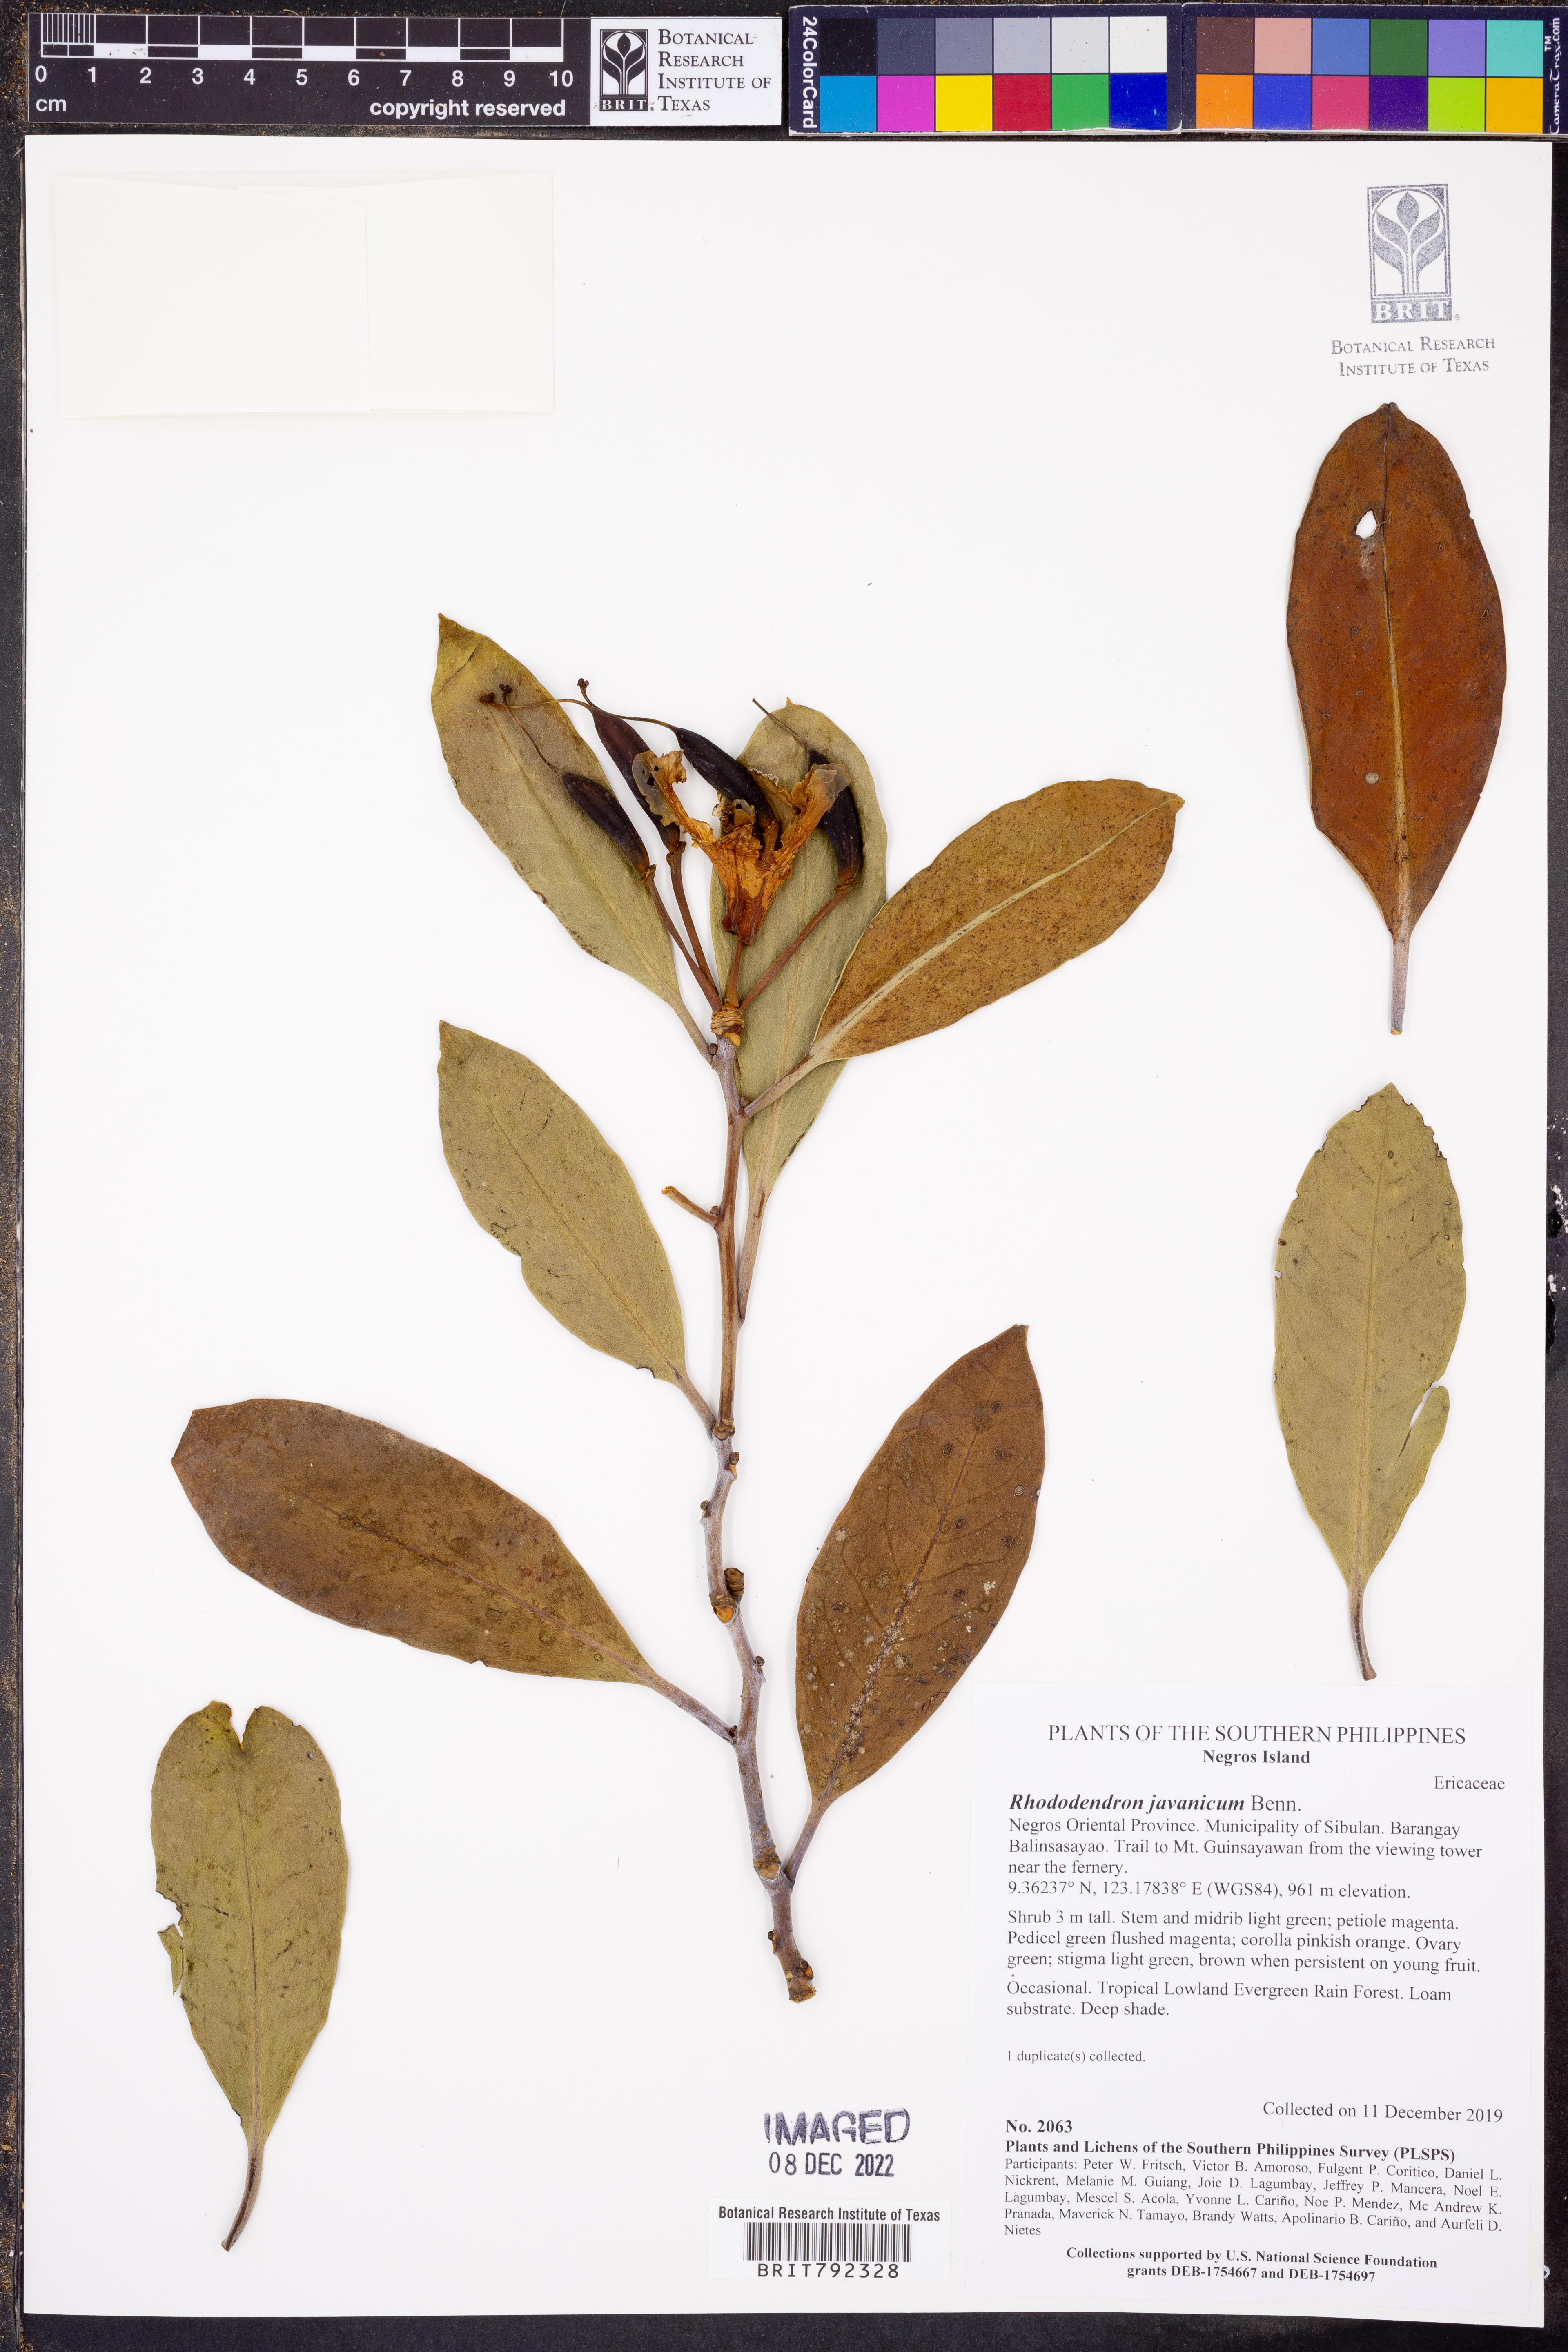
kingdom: Plantae
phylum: Tracheophyta
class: Magnoliopsida
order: Ericales
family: Ericaceae
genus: Rhododendron
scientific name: Rhododendron javanicum
